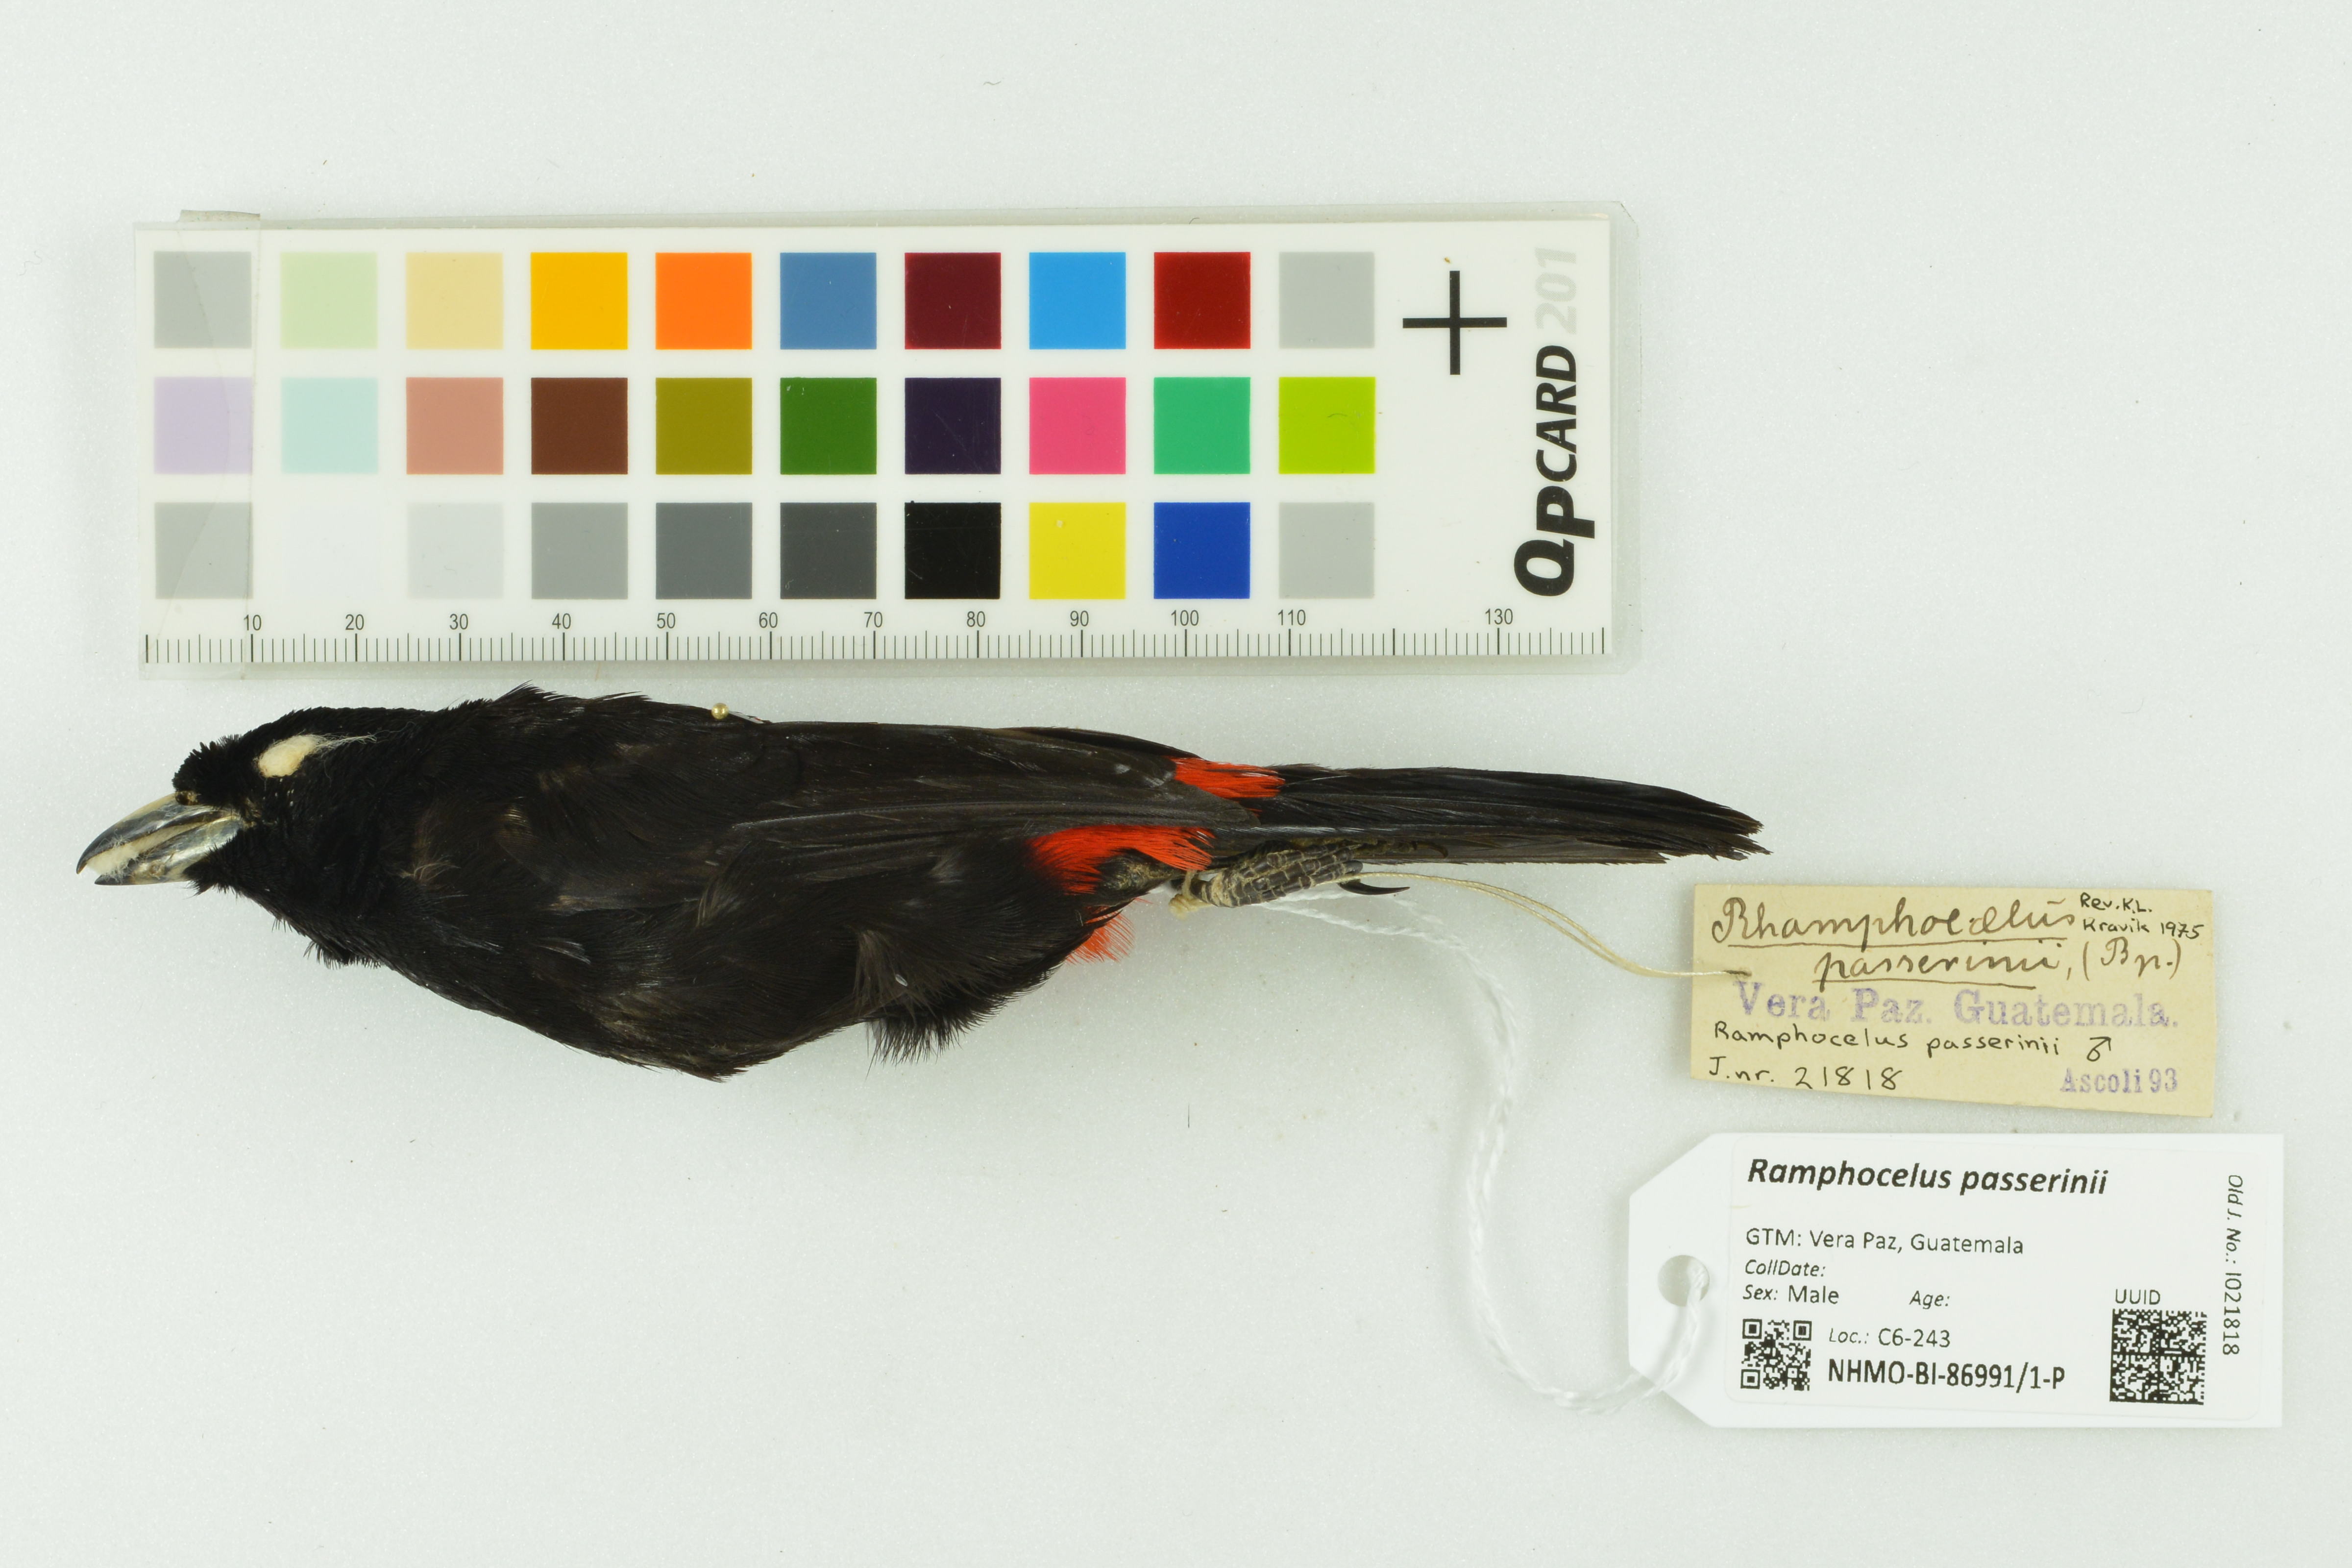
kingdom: Animalia
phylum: Chordata
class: Aves
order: Passeriformes
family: Thraupidae
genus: Ramphocelus
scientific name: Ramphocelus passerinii
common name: Passerini's tanager
